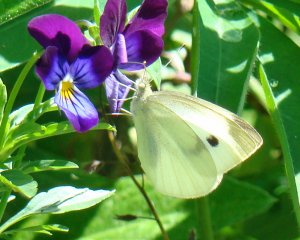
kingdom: Animalia
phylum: Arthropoda
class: Insecta
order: Lepidoptera
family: Pieridae
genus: Pieris
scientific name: Pieris rapae
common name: Cabbage White
